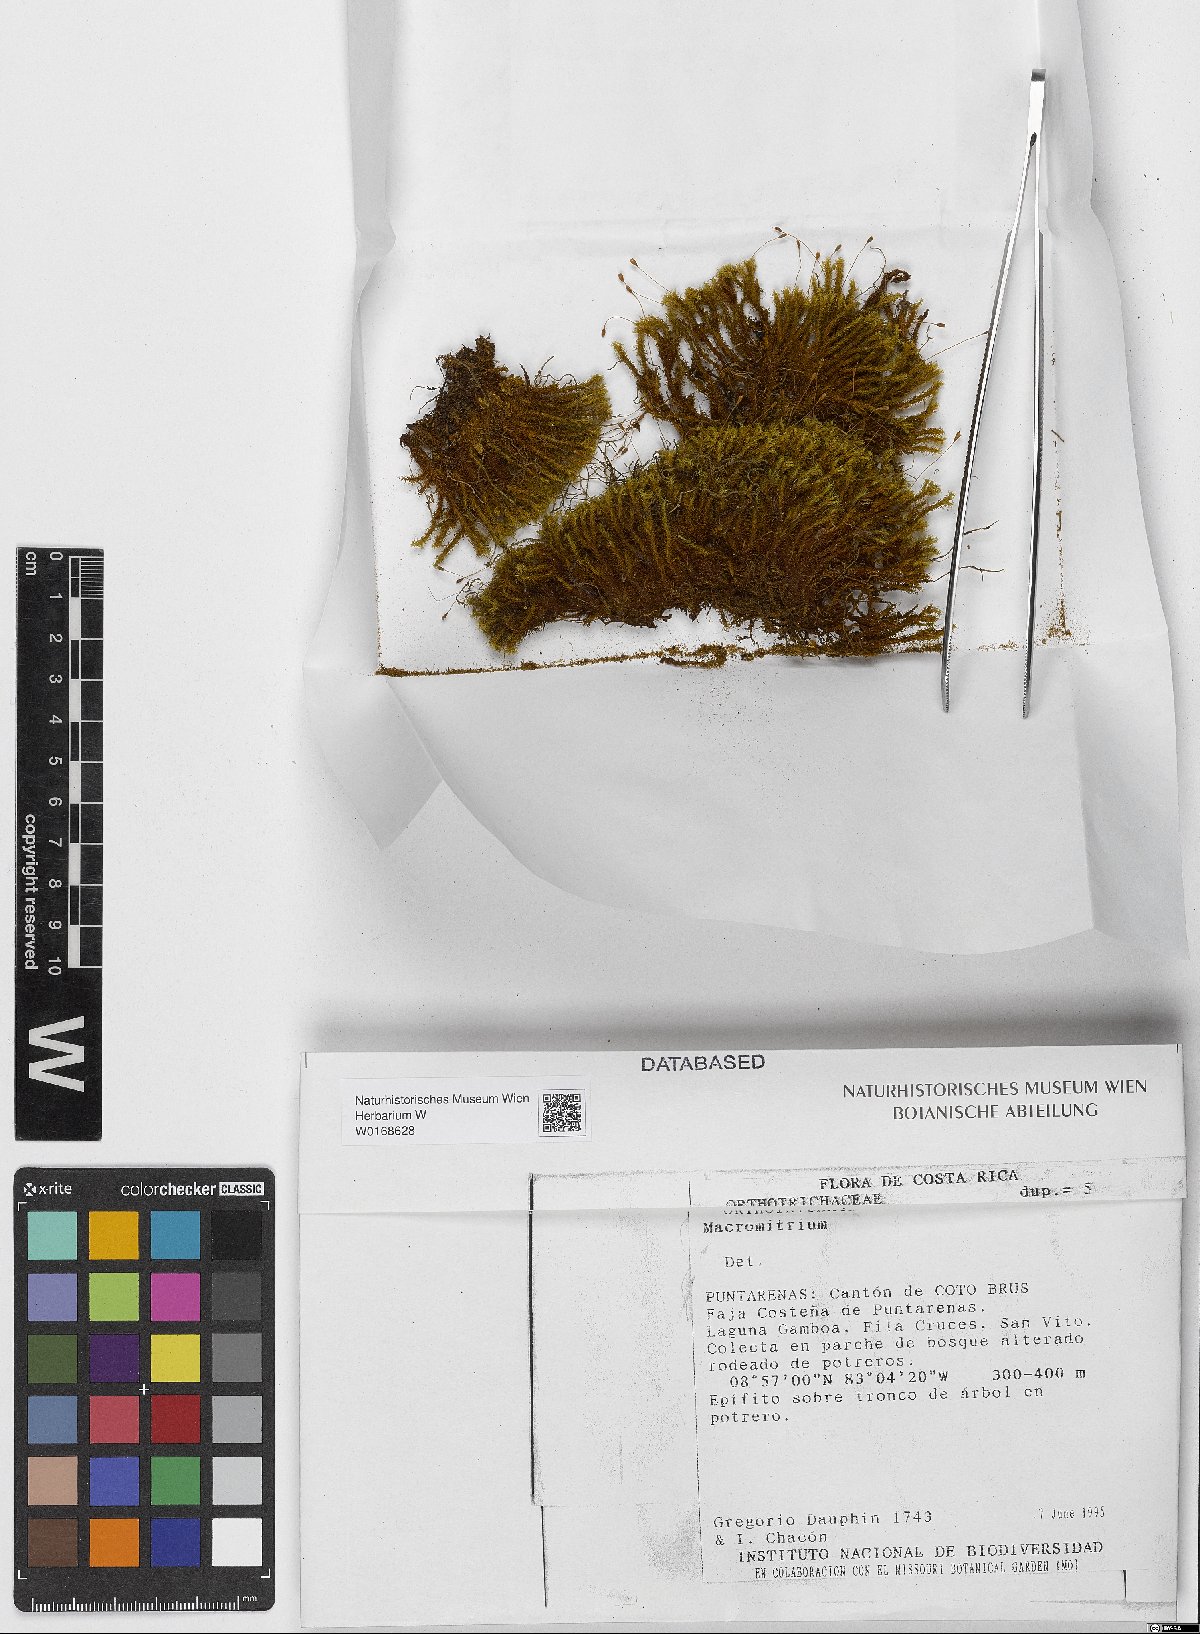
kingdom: Plantae
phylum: Bryophyta
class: Bryopsida
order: Orthotrichales
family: Orthotrichaceae
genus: Macromitrium
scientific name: Macromitrium
